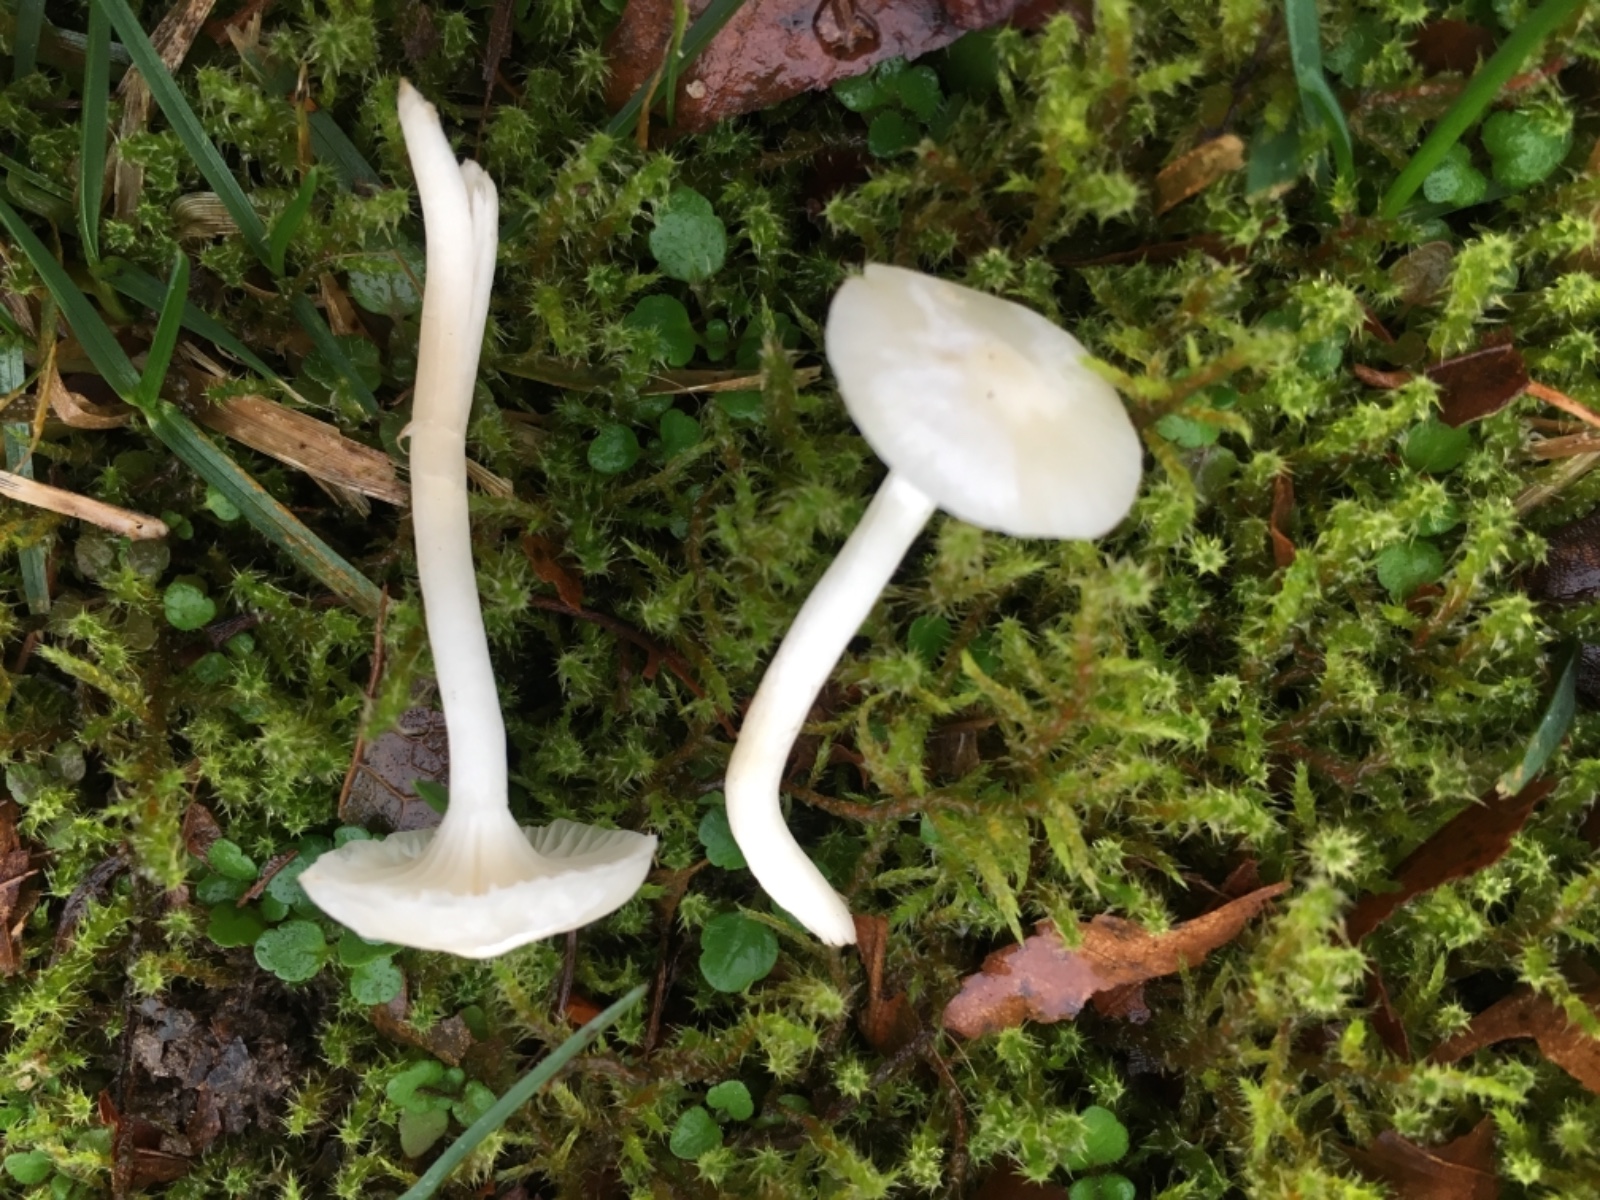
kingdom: Fungi
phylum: Basidiomycota
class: Agaricomycetes
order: Agaricales
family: Hygrophoraceae
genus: Cuphophyllus
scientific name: Cuphophyllus virgineus
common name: snehvid vokshat
